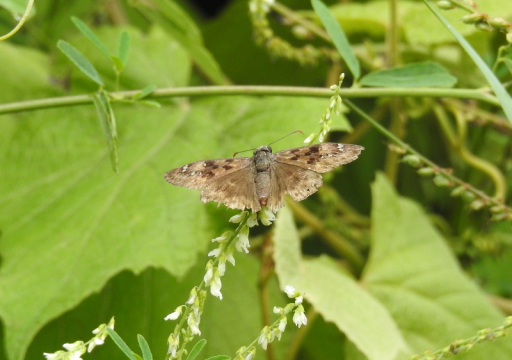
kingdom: Animalia
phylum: Arthropoda
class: Insecta
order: Lepidoptera
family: Hesperiidae
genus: Gesta
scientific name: Gesta
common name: Horace's Duskywing
